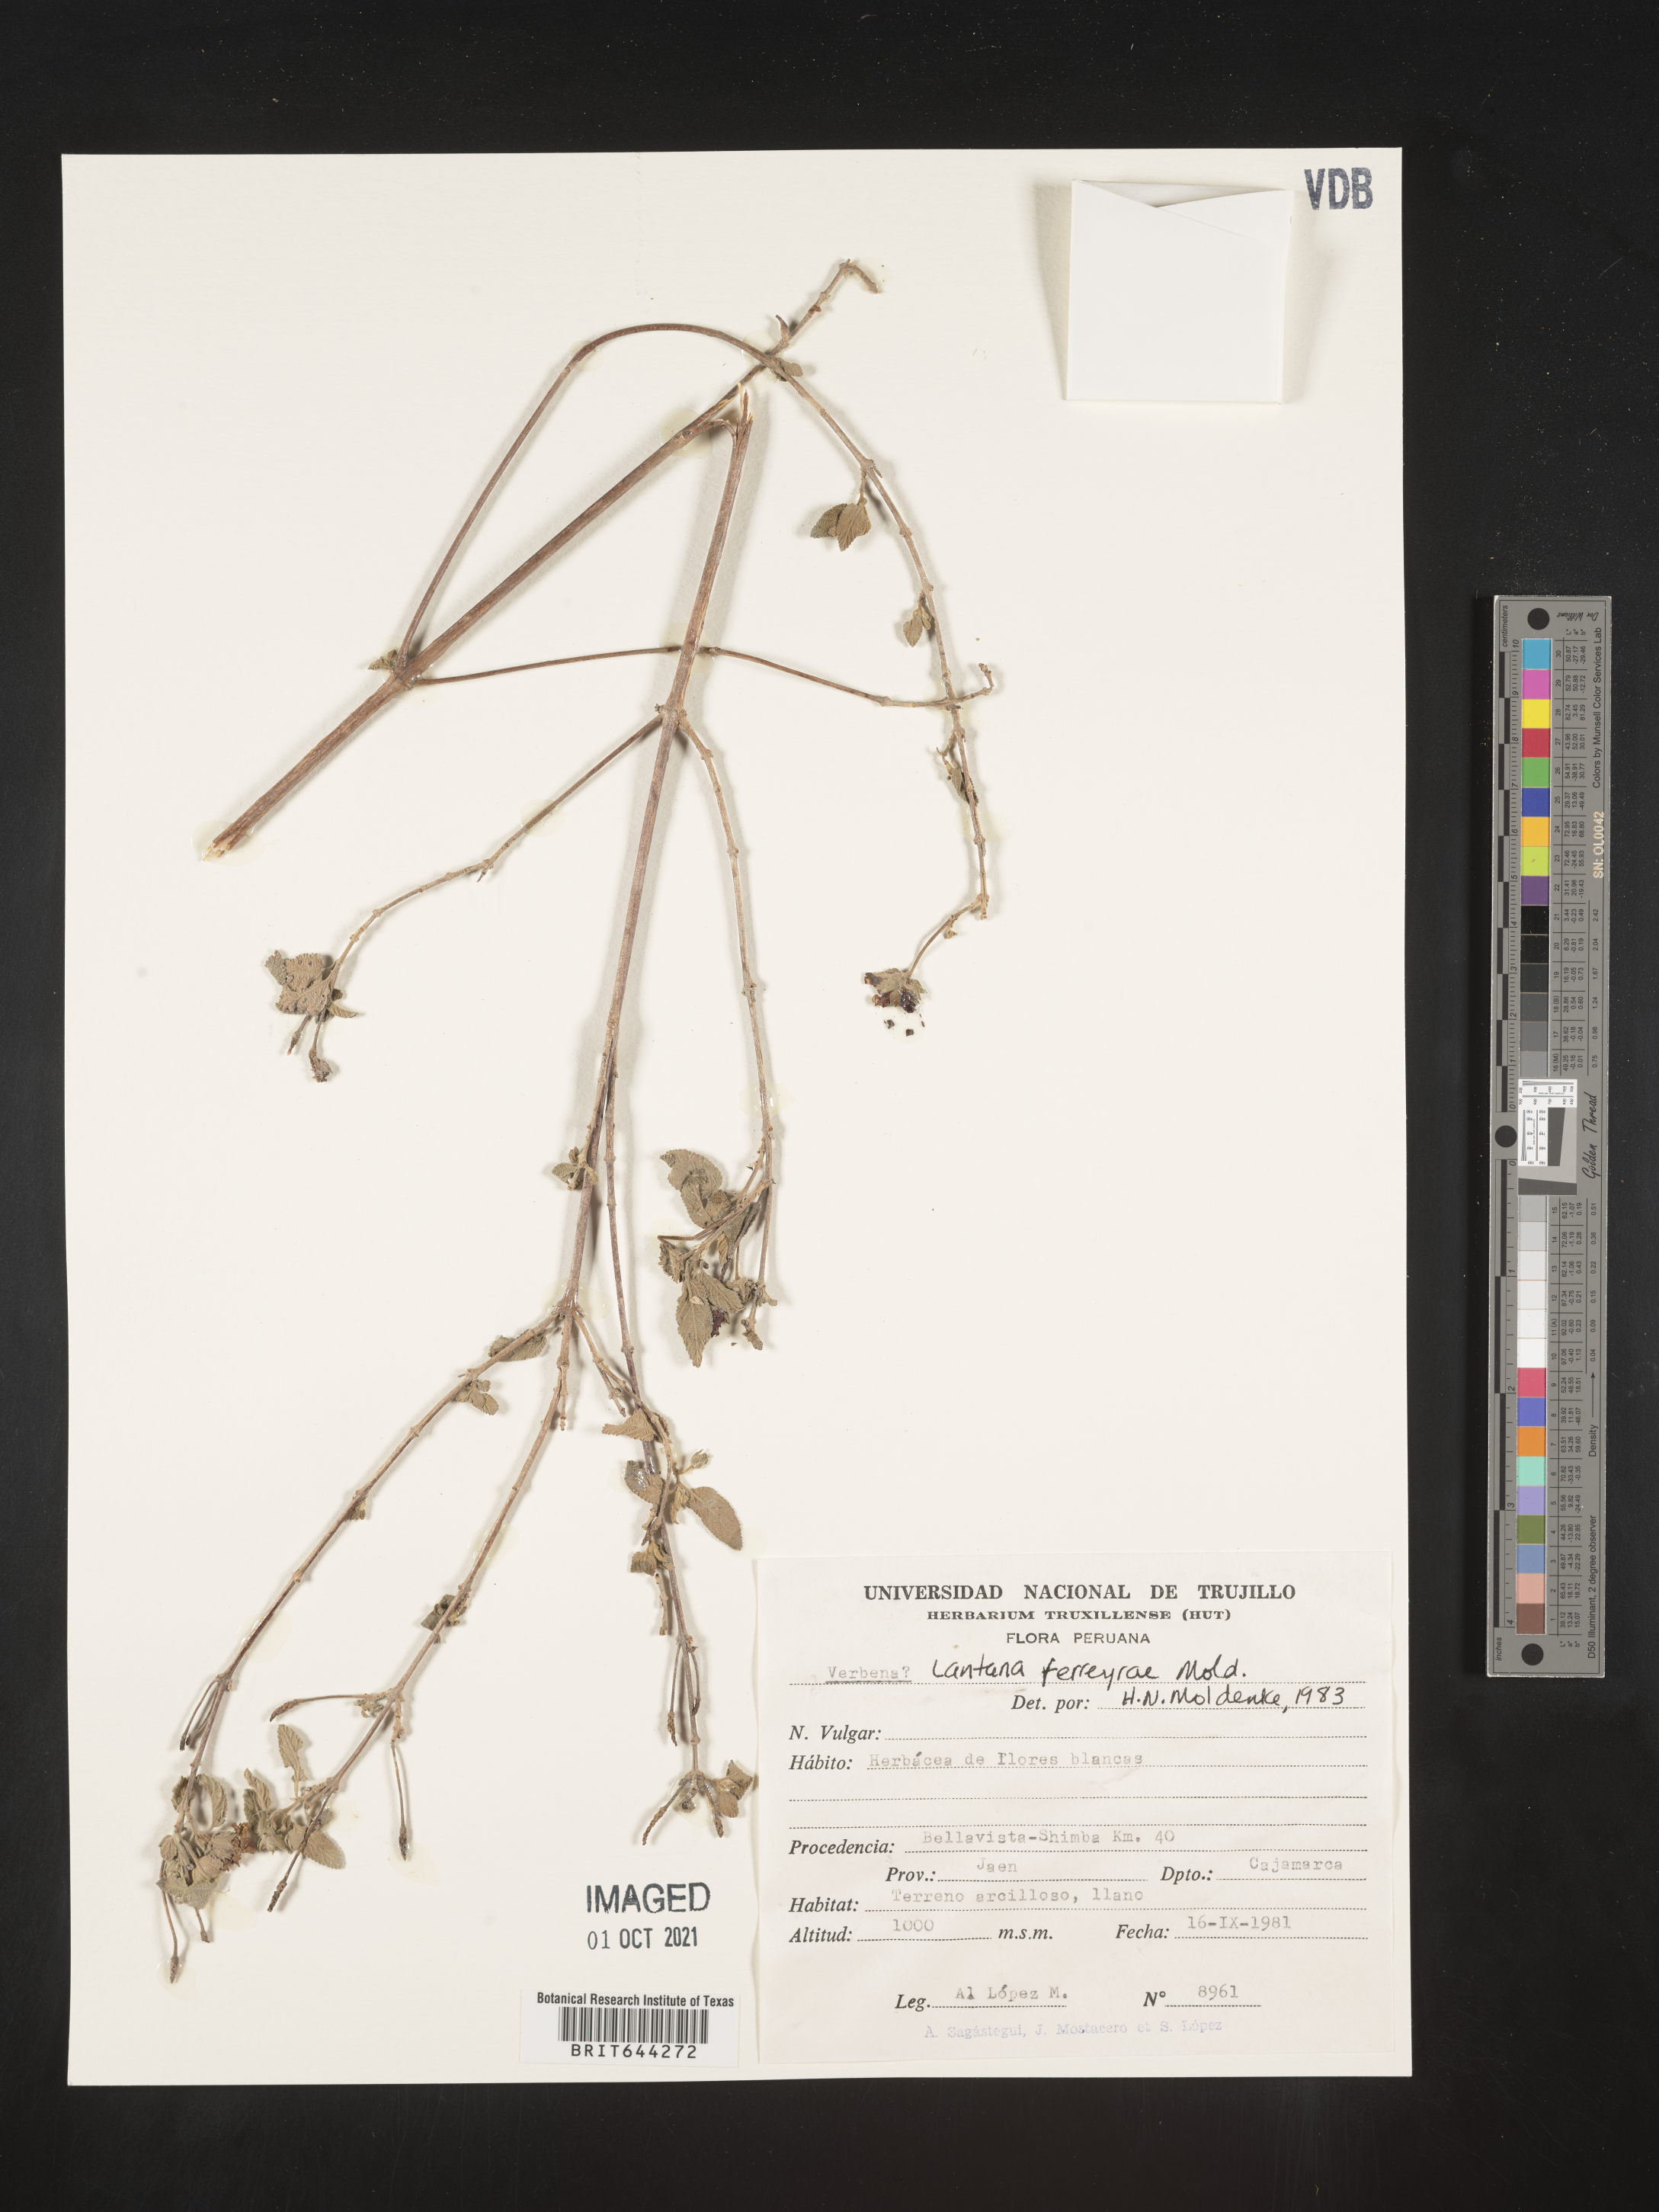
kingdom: Plantae
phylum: Tracheophyta
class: Magnoliopsida
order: Lamiales
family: Verbenaceae
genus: Lantana
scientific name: Lantana
